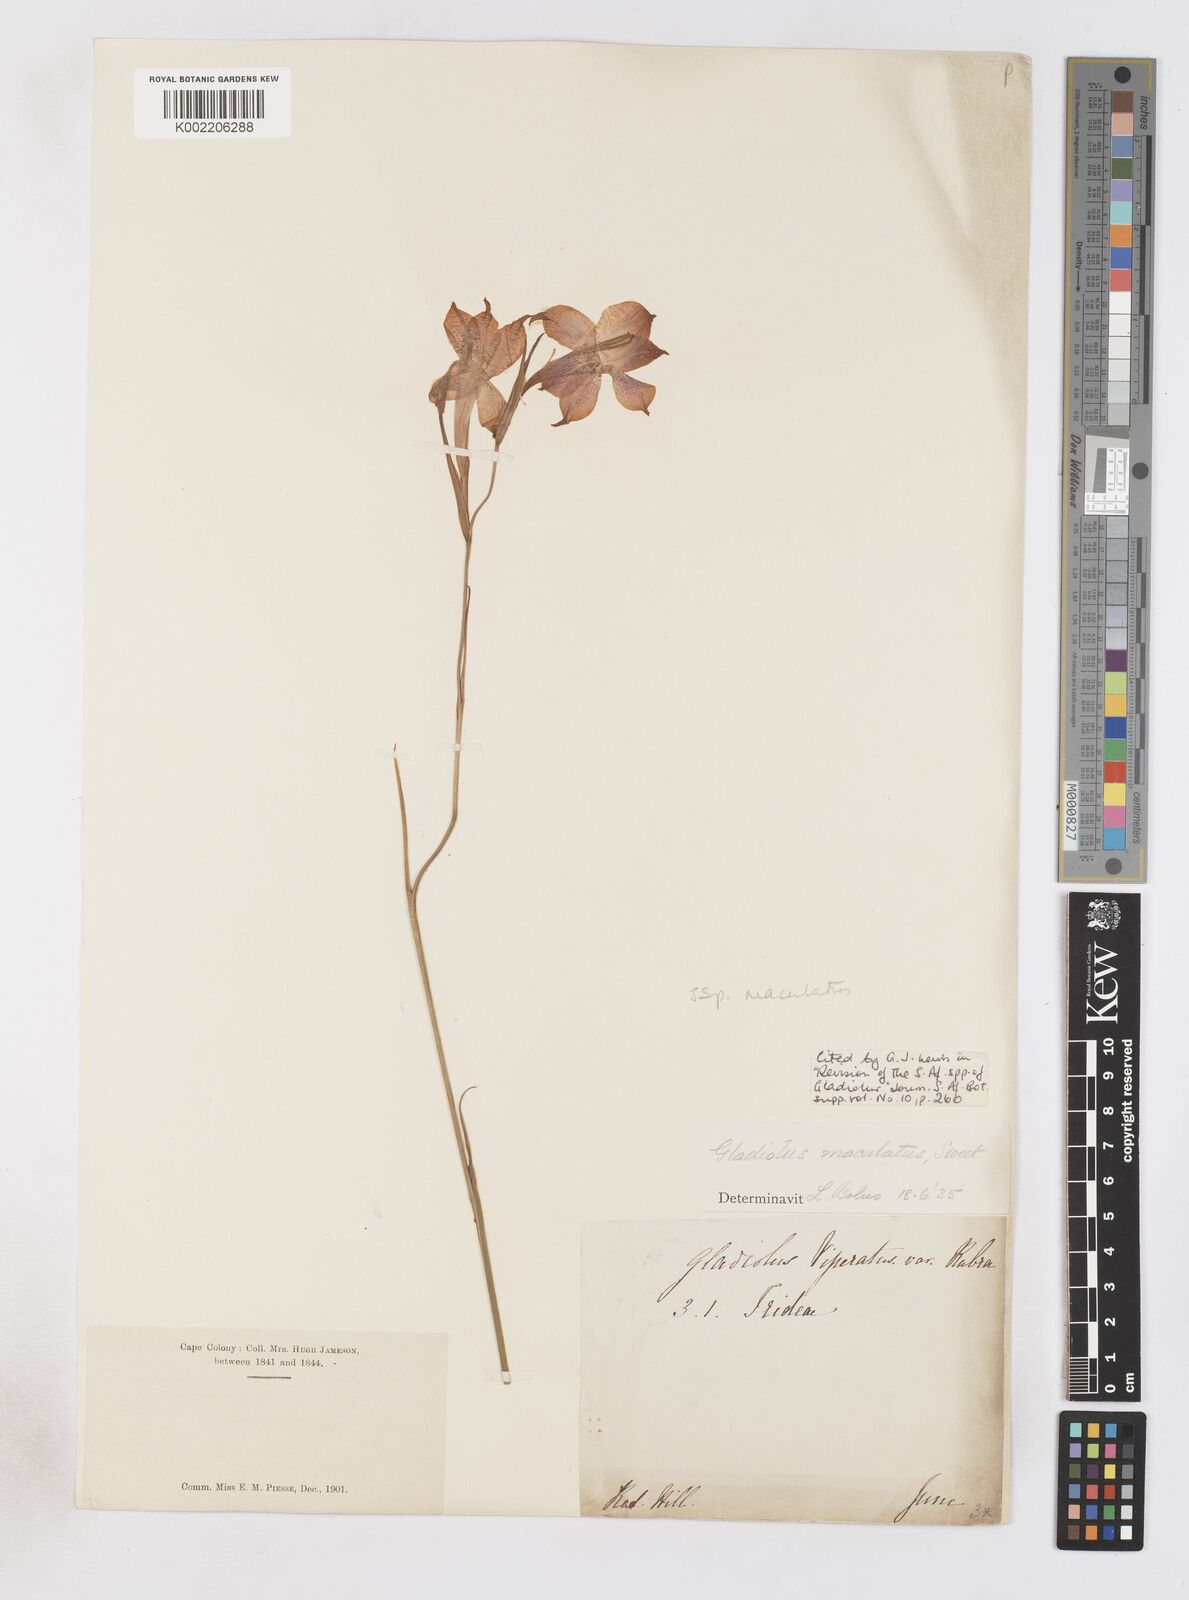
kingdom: Plantae
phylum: Tracheophyta
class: Liliopsida
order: Asparagales
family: Iridaceae
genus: Gladiolus
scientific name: Gladiolus maculatus
